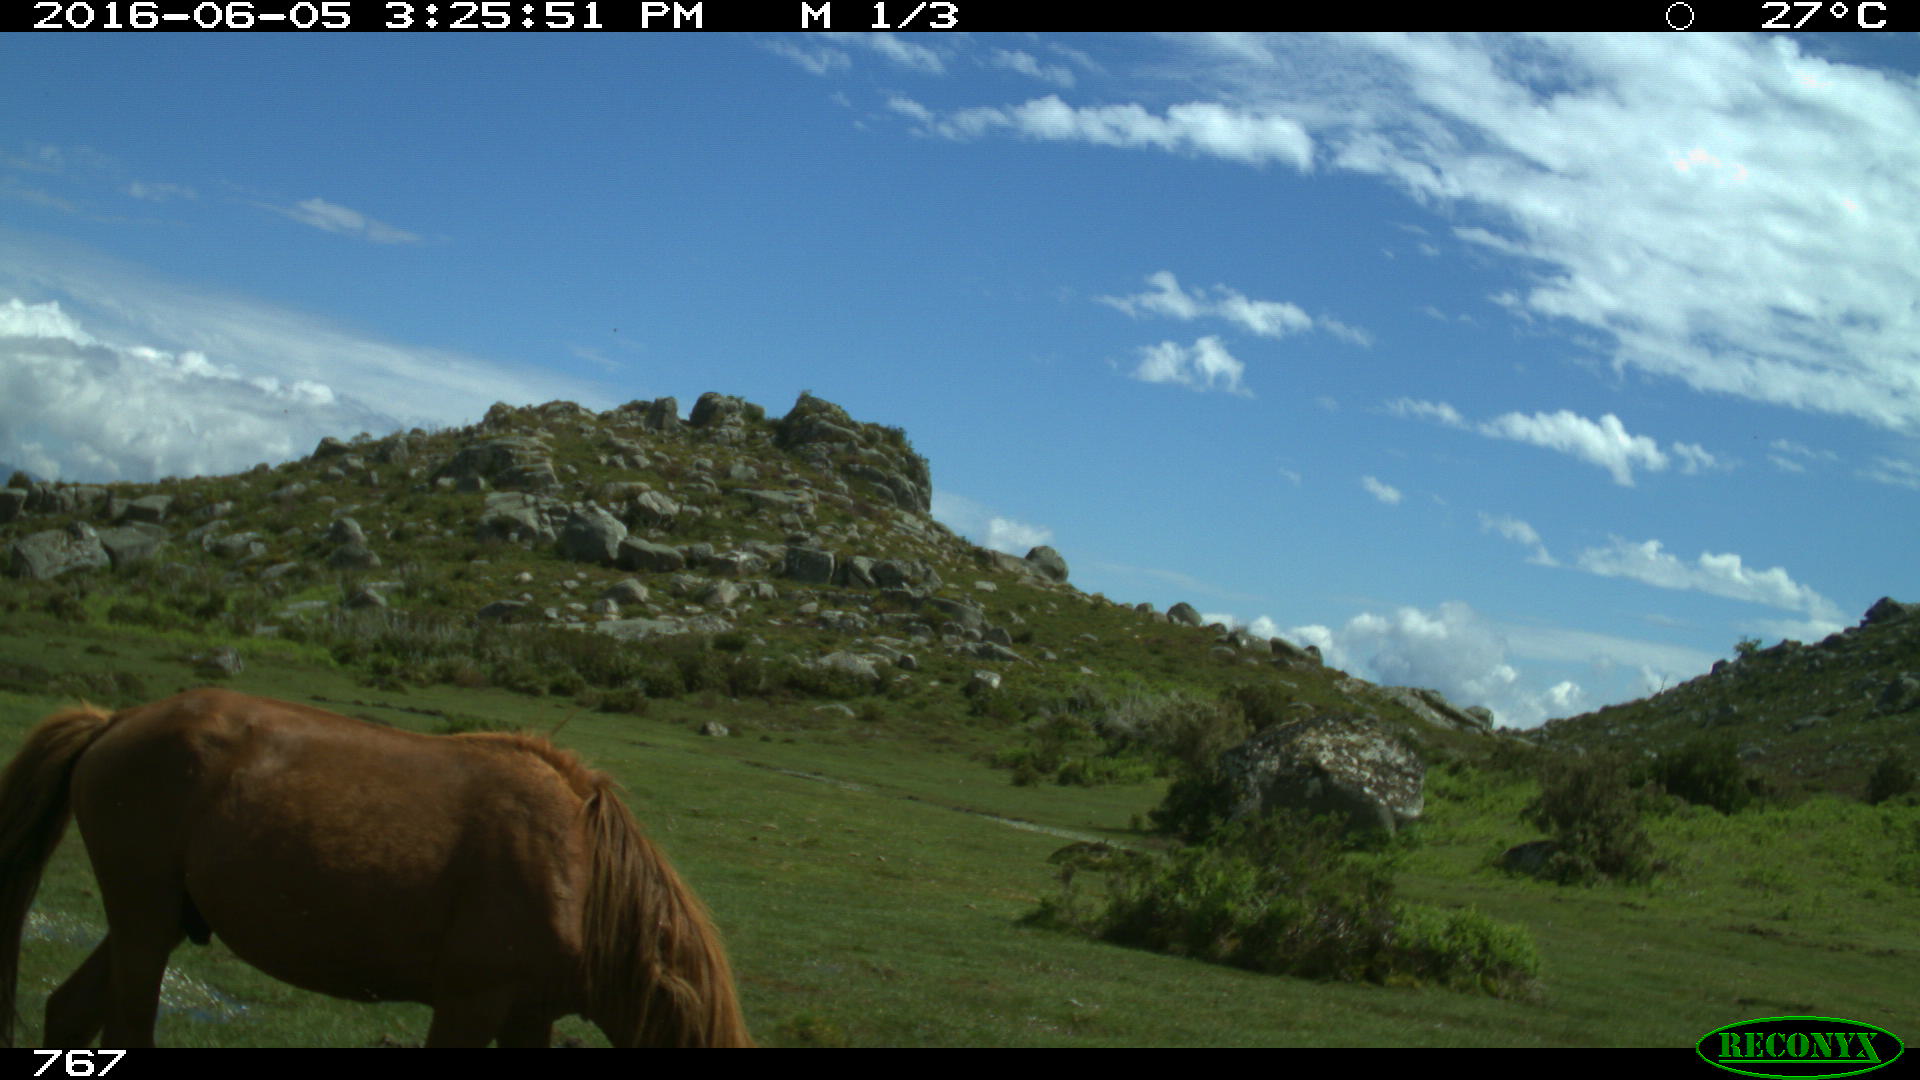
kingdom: Animalia
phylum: Chordata
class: Mammalia
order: Perissodactyla
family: Equidae
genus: Equus
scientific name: Equus caballus
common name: Horse
